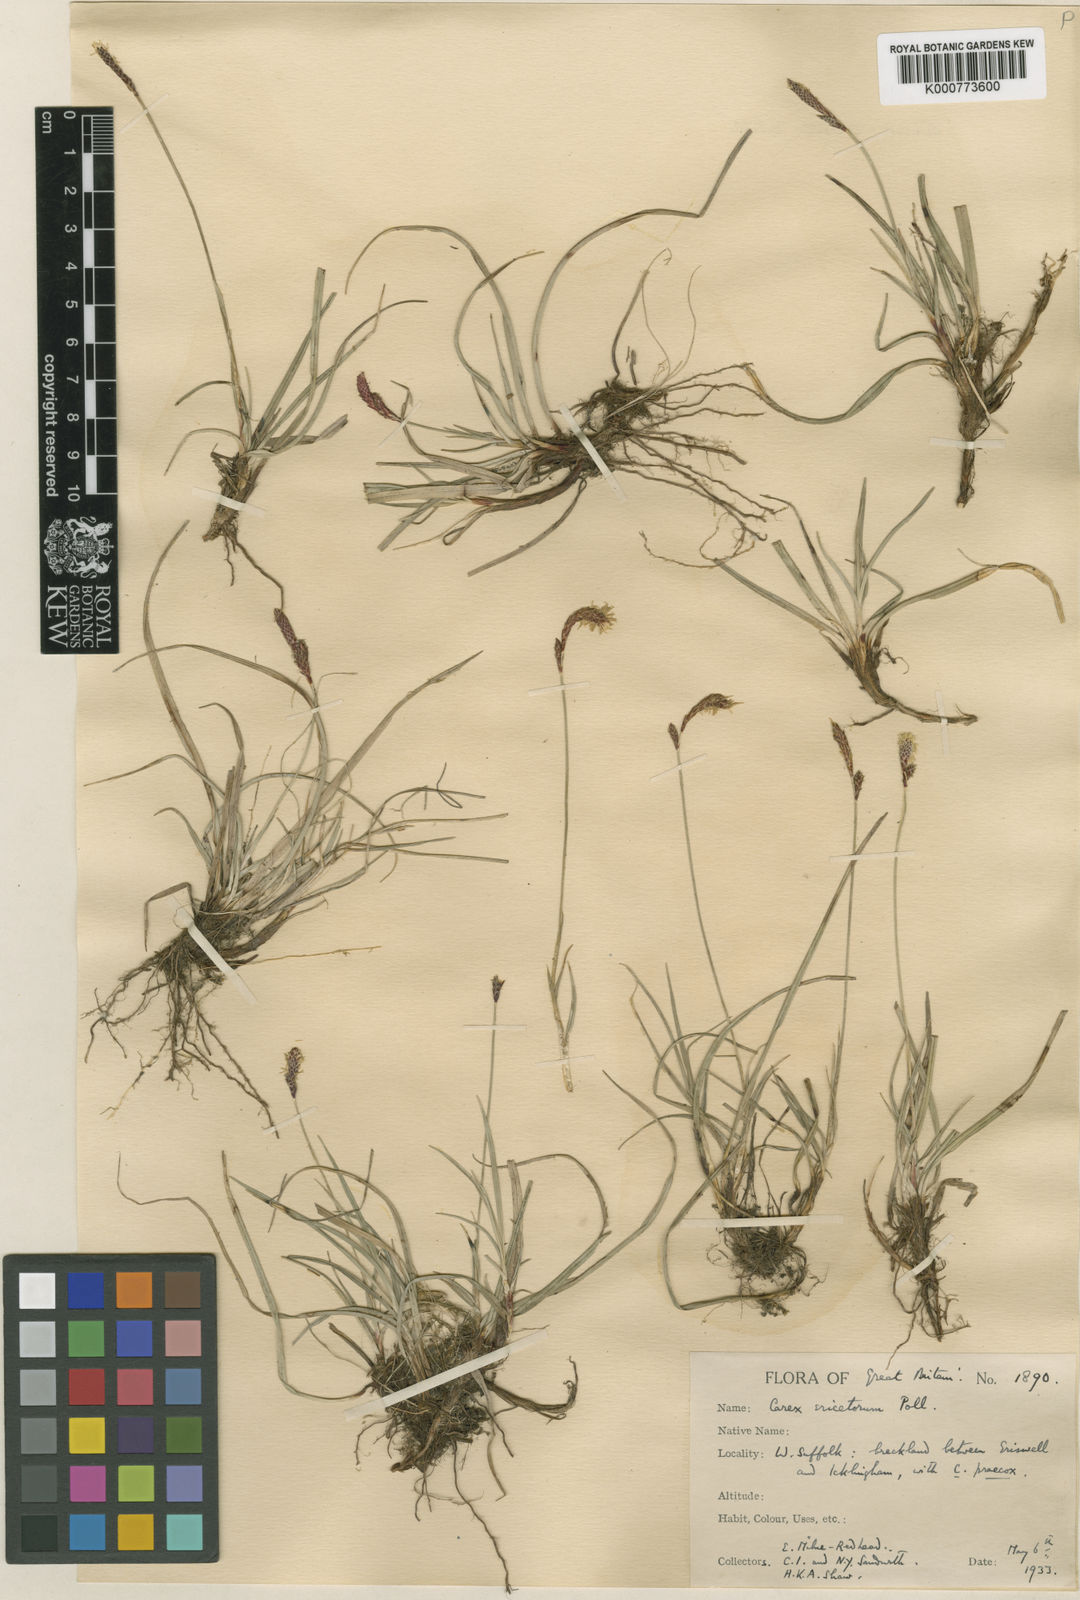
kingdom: Plantae
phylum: Tracheophyta
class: Liliopsida
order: Poales
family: Cyperaceae
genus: Carex
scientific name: Carex ericetorum
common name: Rare spring-sedge
